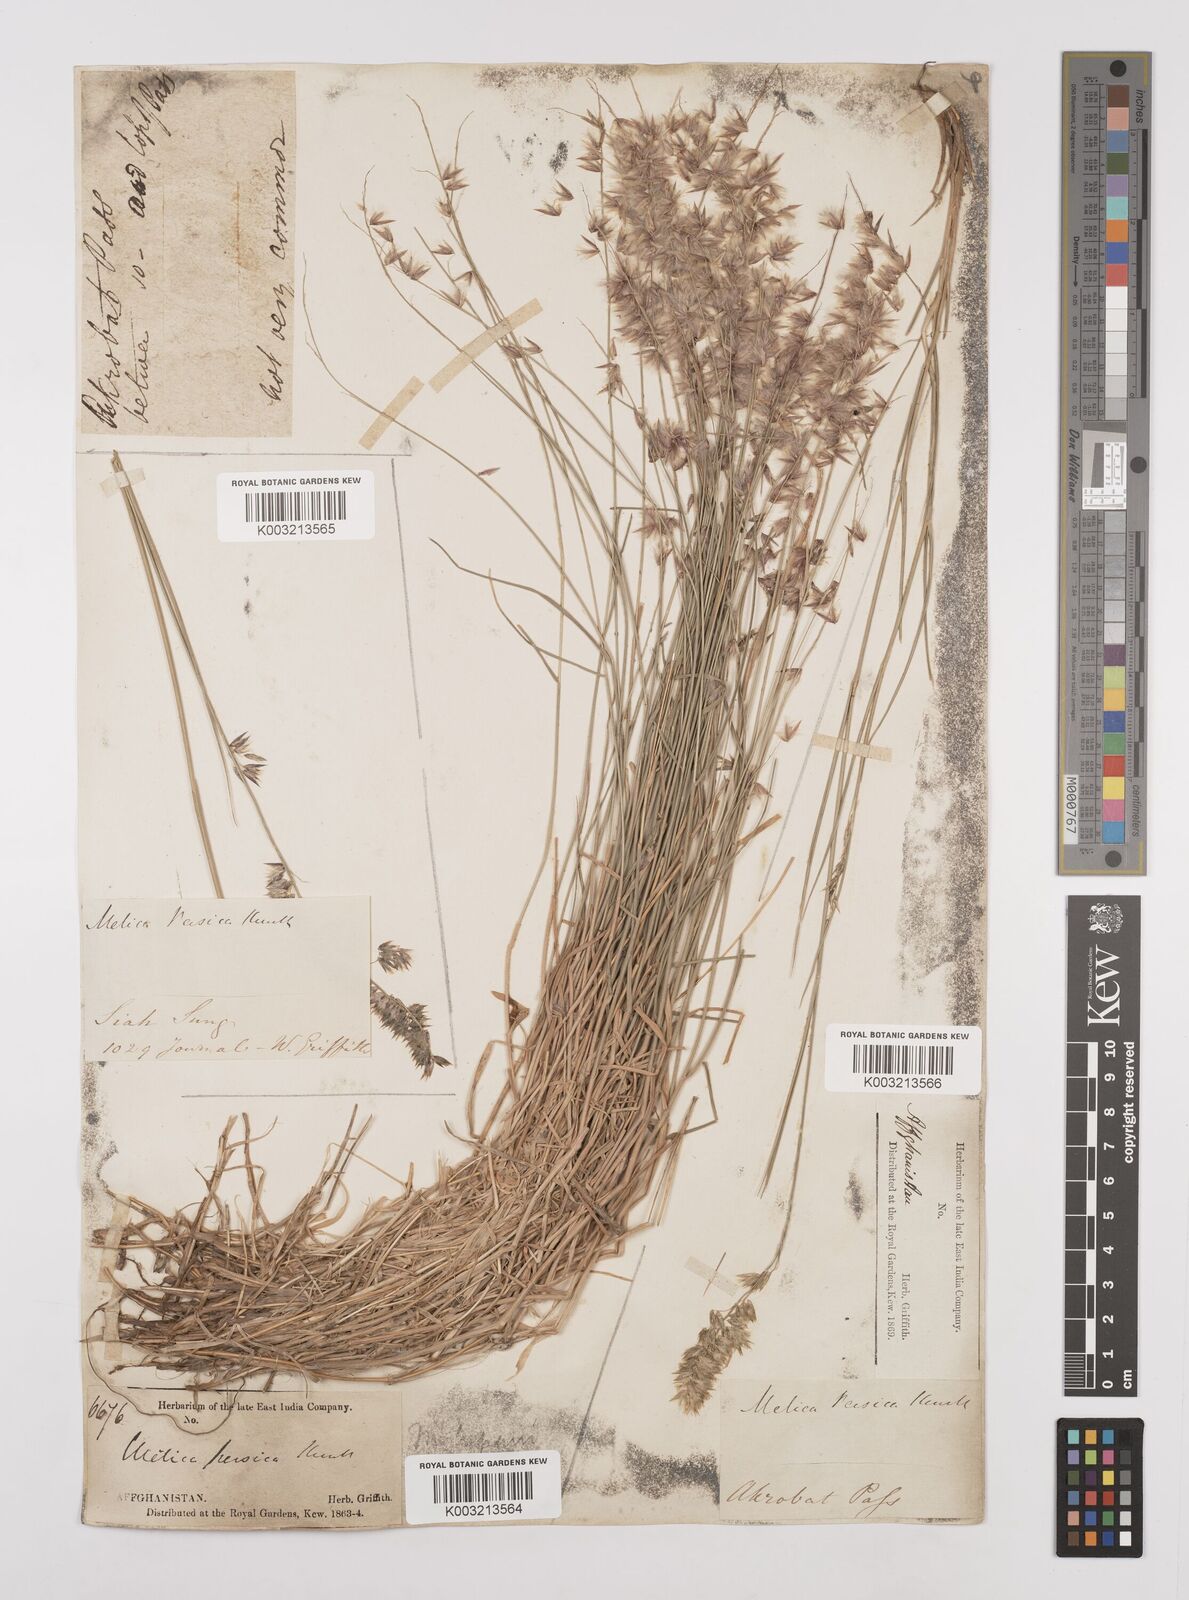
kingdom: Plantae
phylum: Tracheophyta
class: Liliopsida
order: Poales
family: Poaceae
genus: Melica
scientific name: Melica persica
